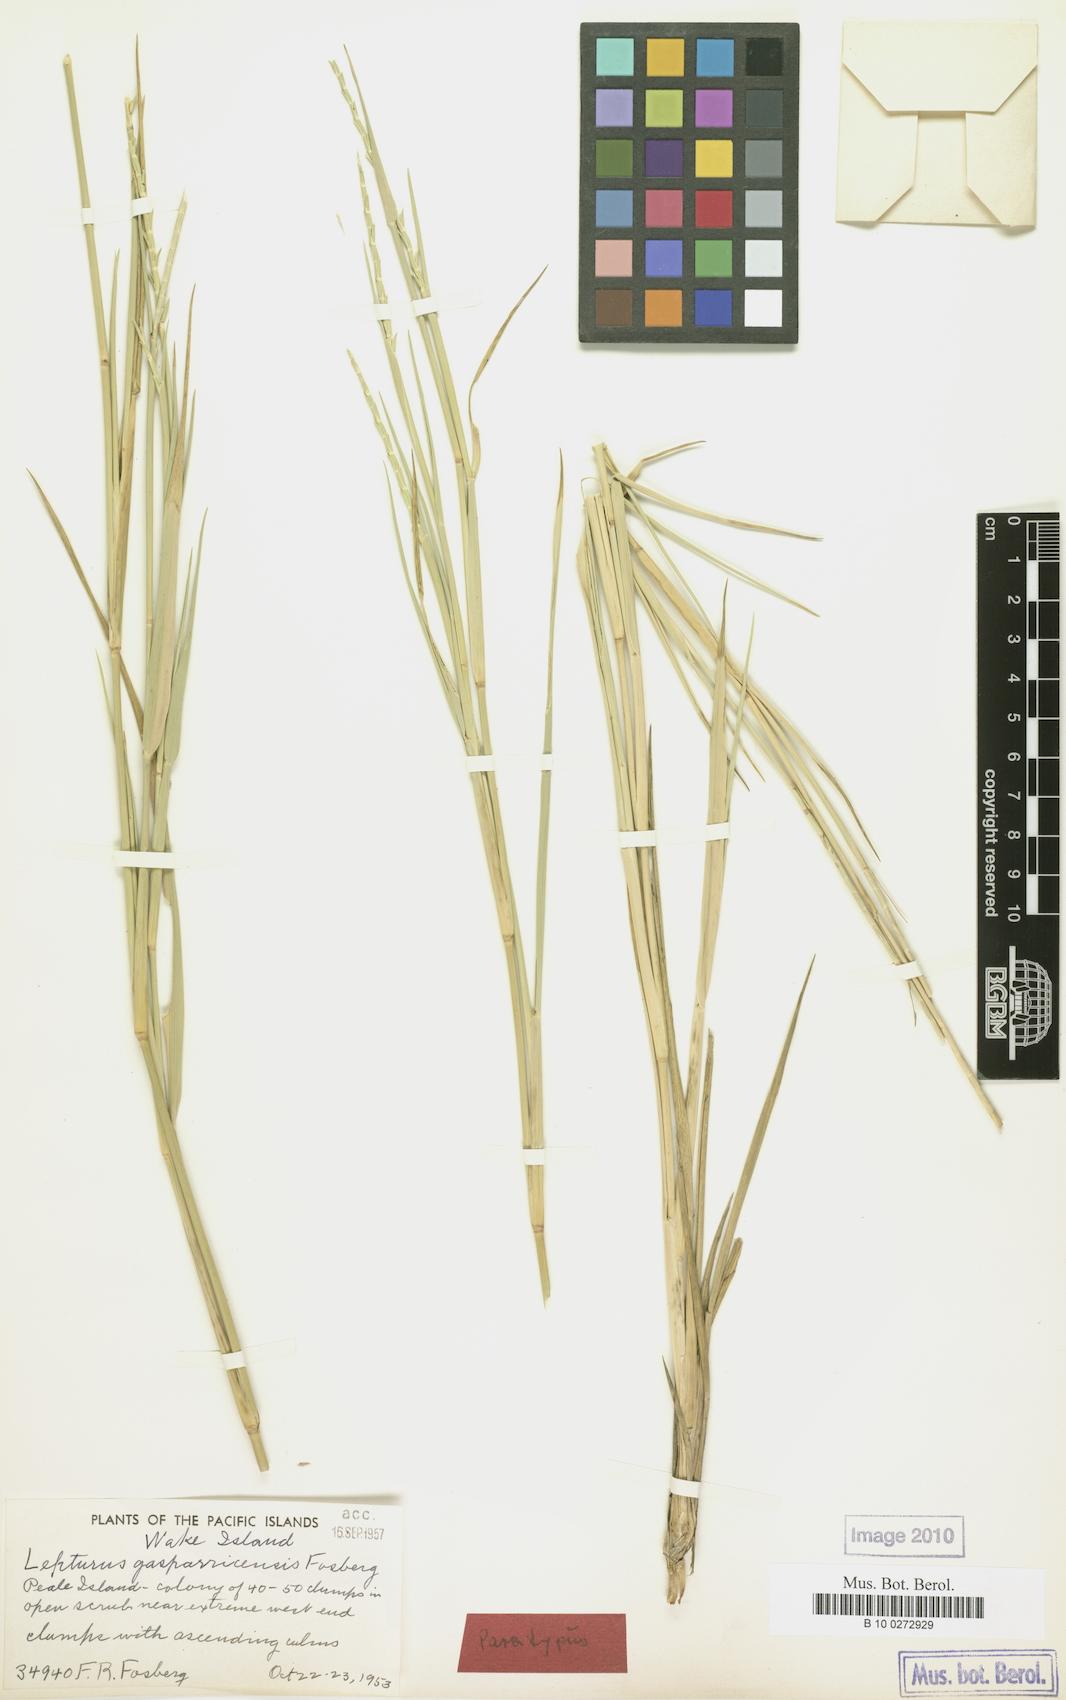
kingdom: Plantae
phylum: Tracheophyta
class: Liliopsida
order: Poales
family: Poaceae
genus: Lepturus
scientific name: Lepturus repens
